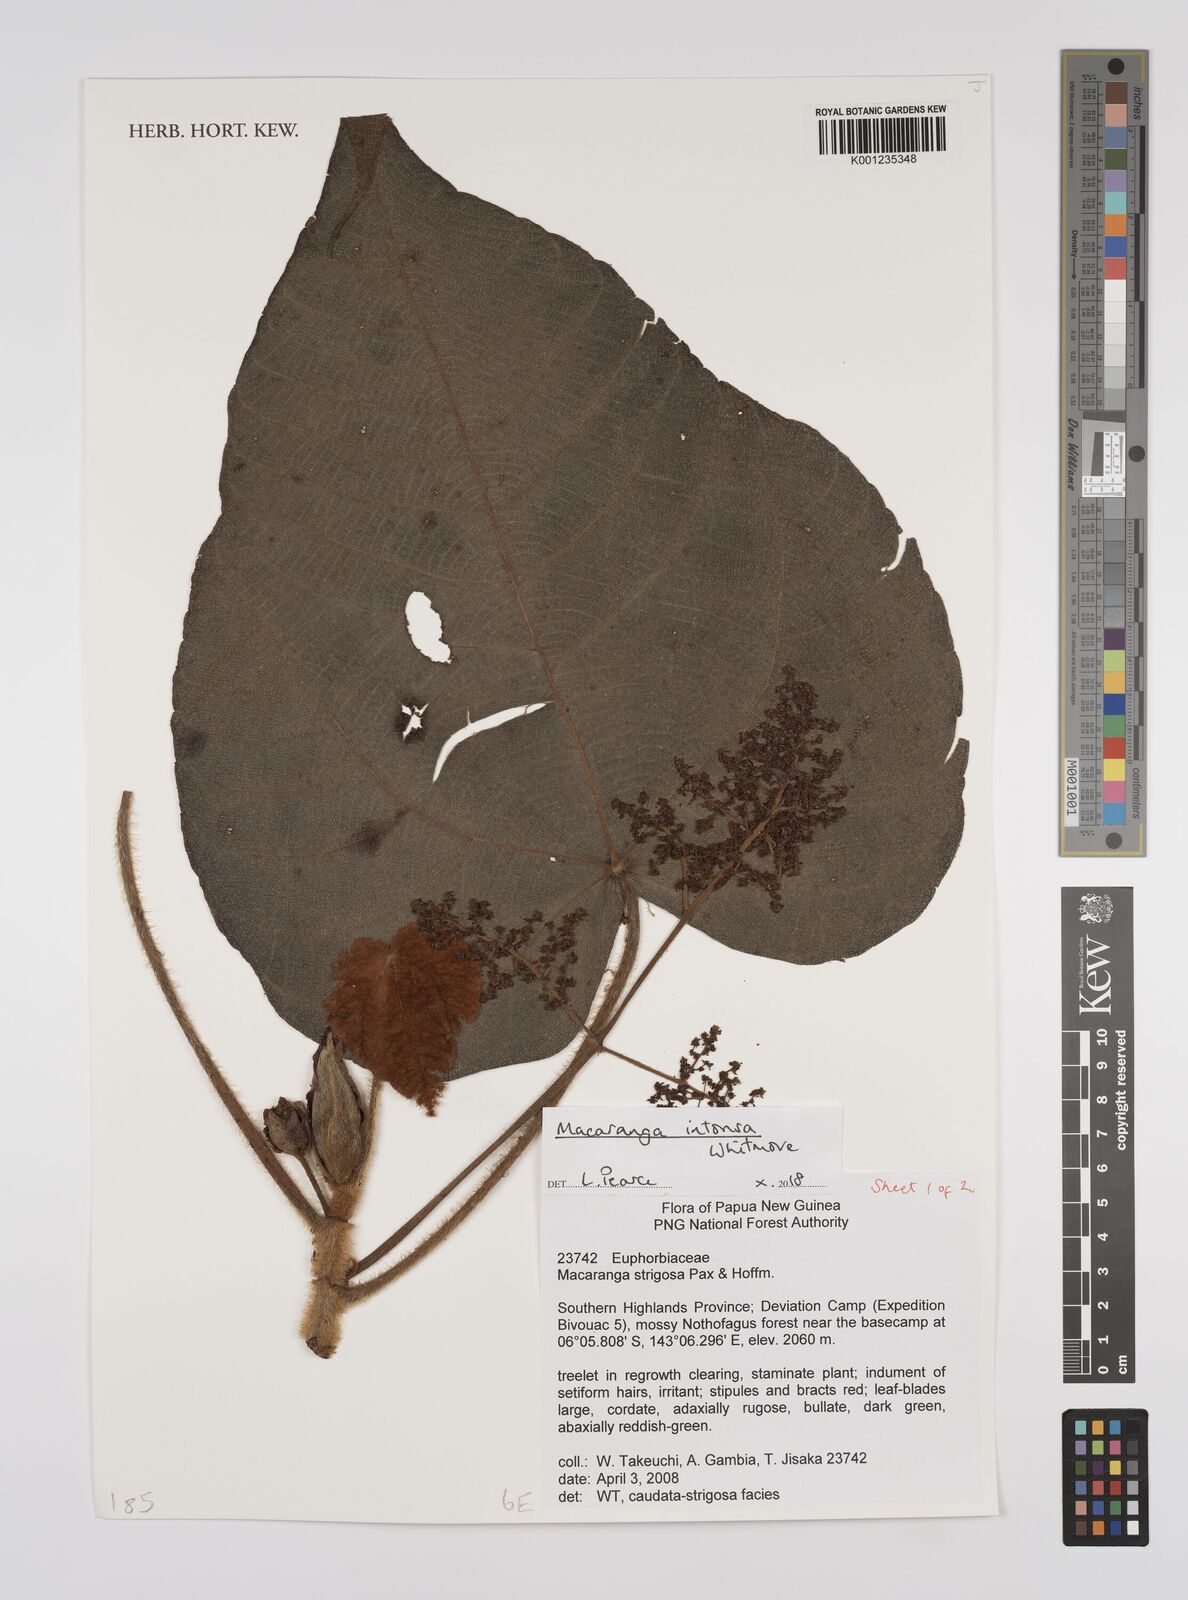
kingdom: Plantae
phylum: Tracheophyta
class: Magnoliopsida
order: Malpighiales
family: Euphorbiaceae
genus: Macaranga
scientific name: Macaranga intonsa
